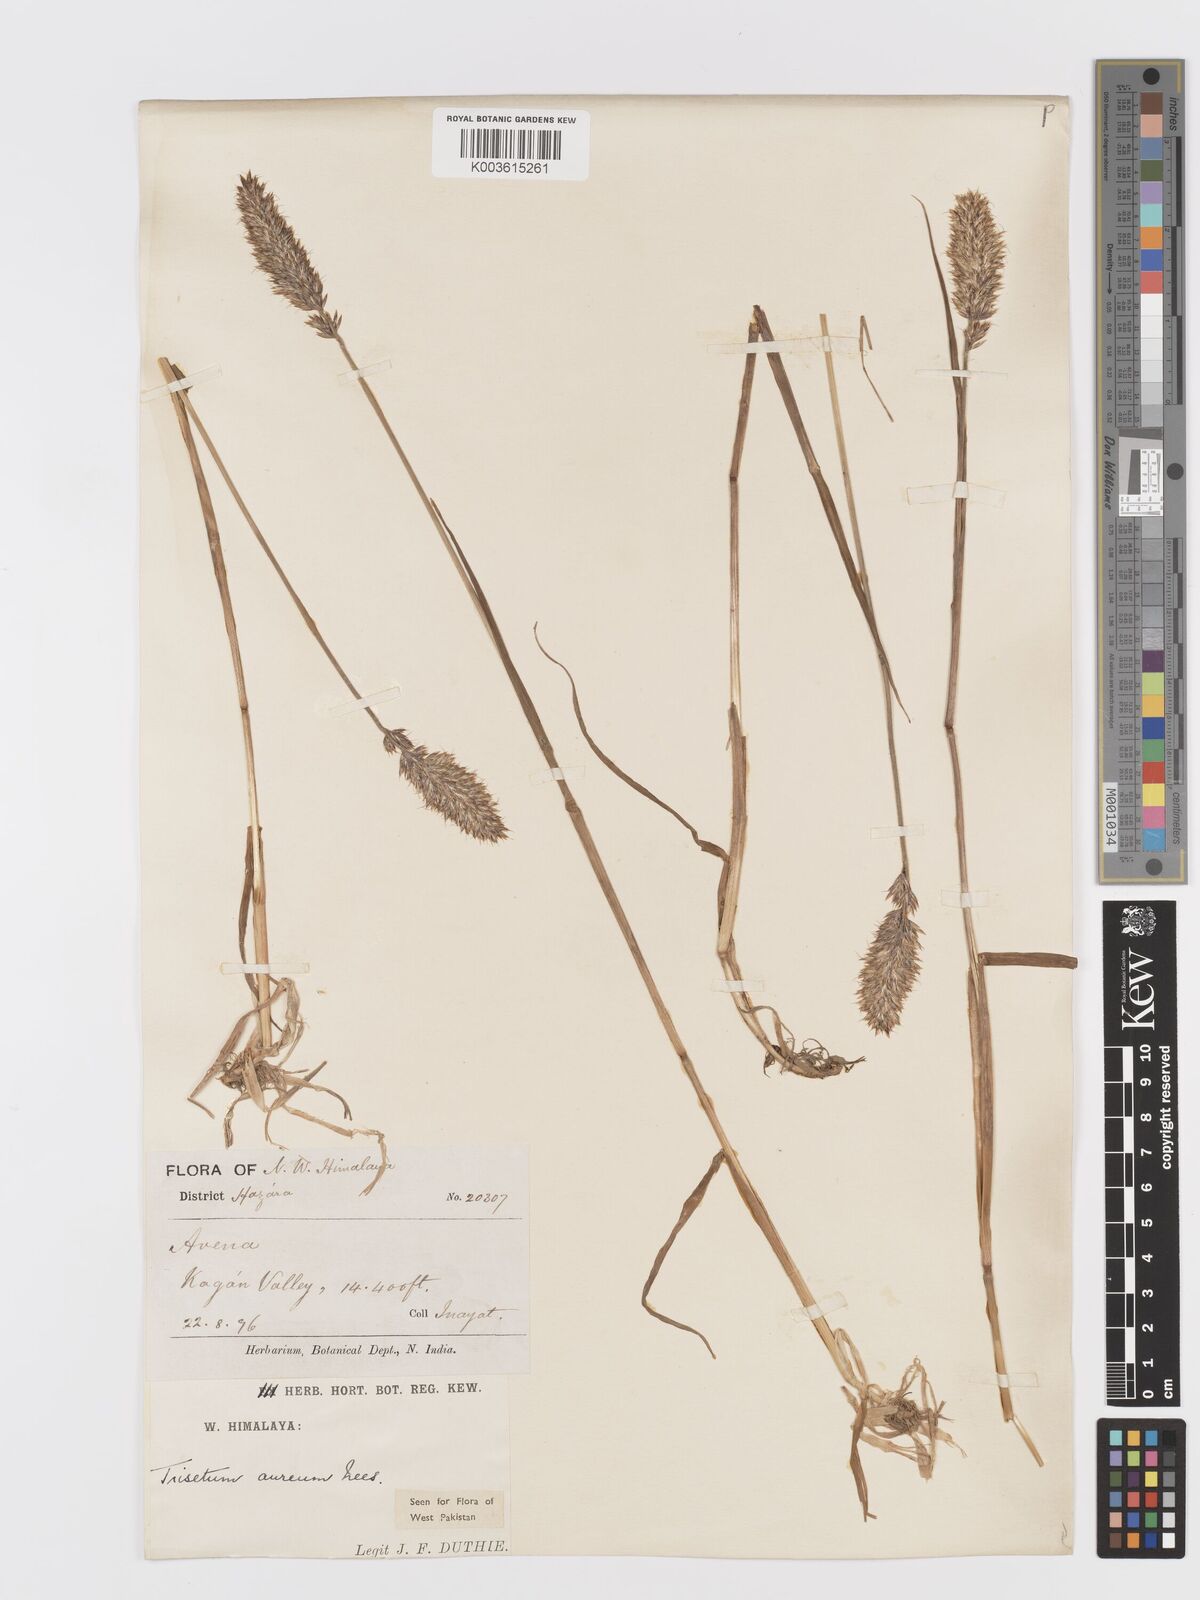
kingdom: Plantae
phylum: Tracheophyta
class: Liliopsida
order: Poales
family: Poaceae
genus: Koeleria
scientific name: Koeleria spicata
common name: Mountain trisetum
